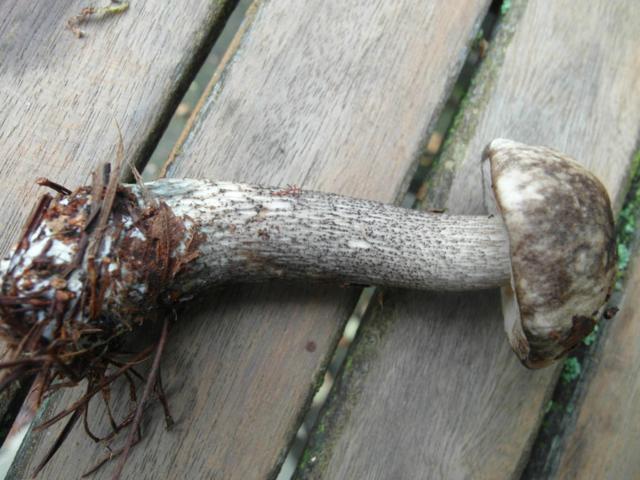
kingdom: Fungi
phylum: Basidiomycota
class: Agaricomycetes
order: Boletales
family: Boletaceae
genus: Leccinum
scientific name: Leccinum variicolor
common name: flammet skælrørhat
